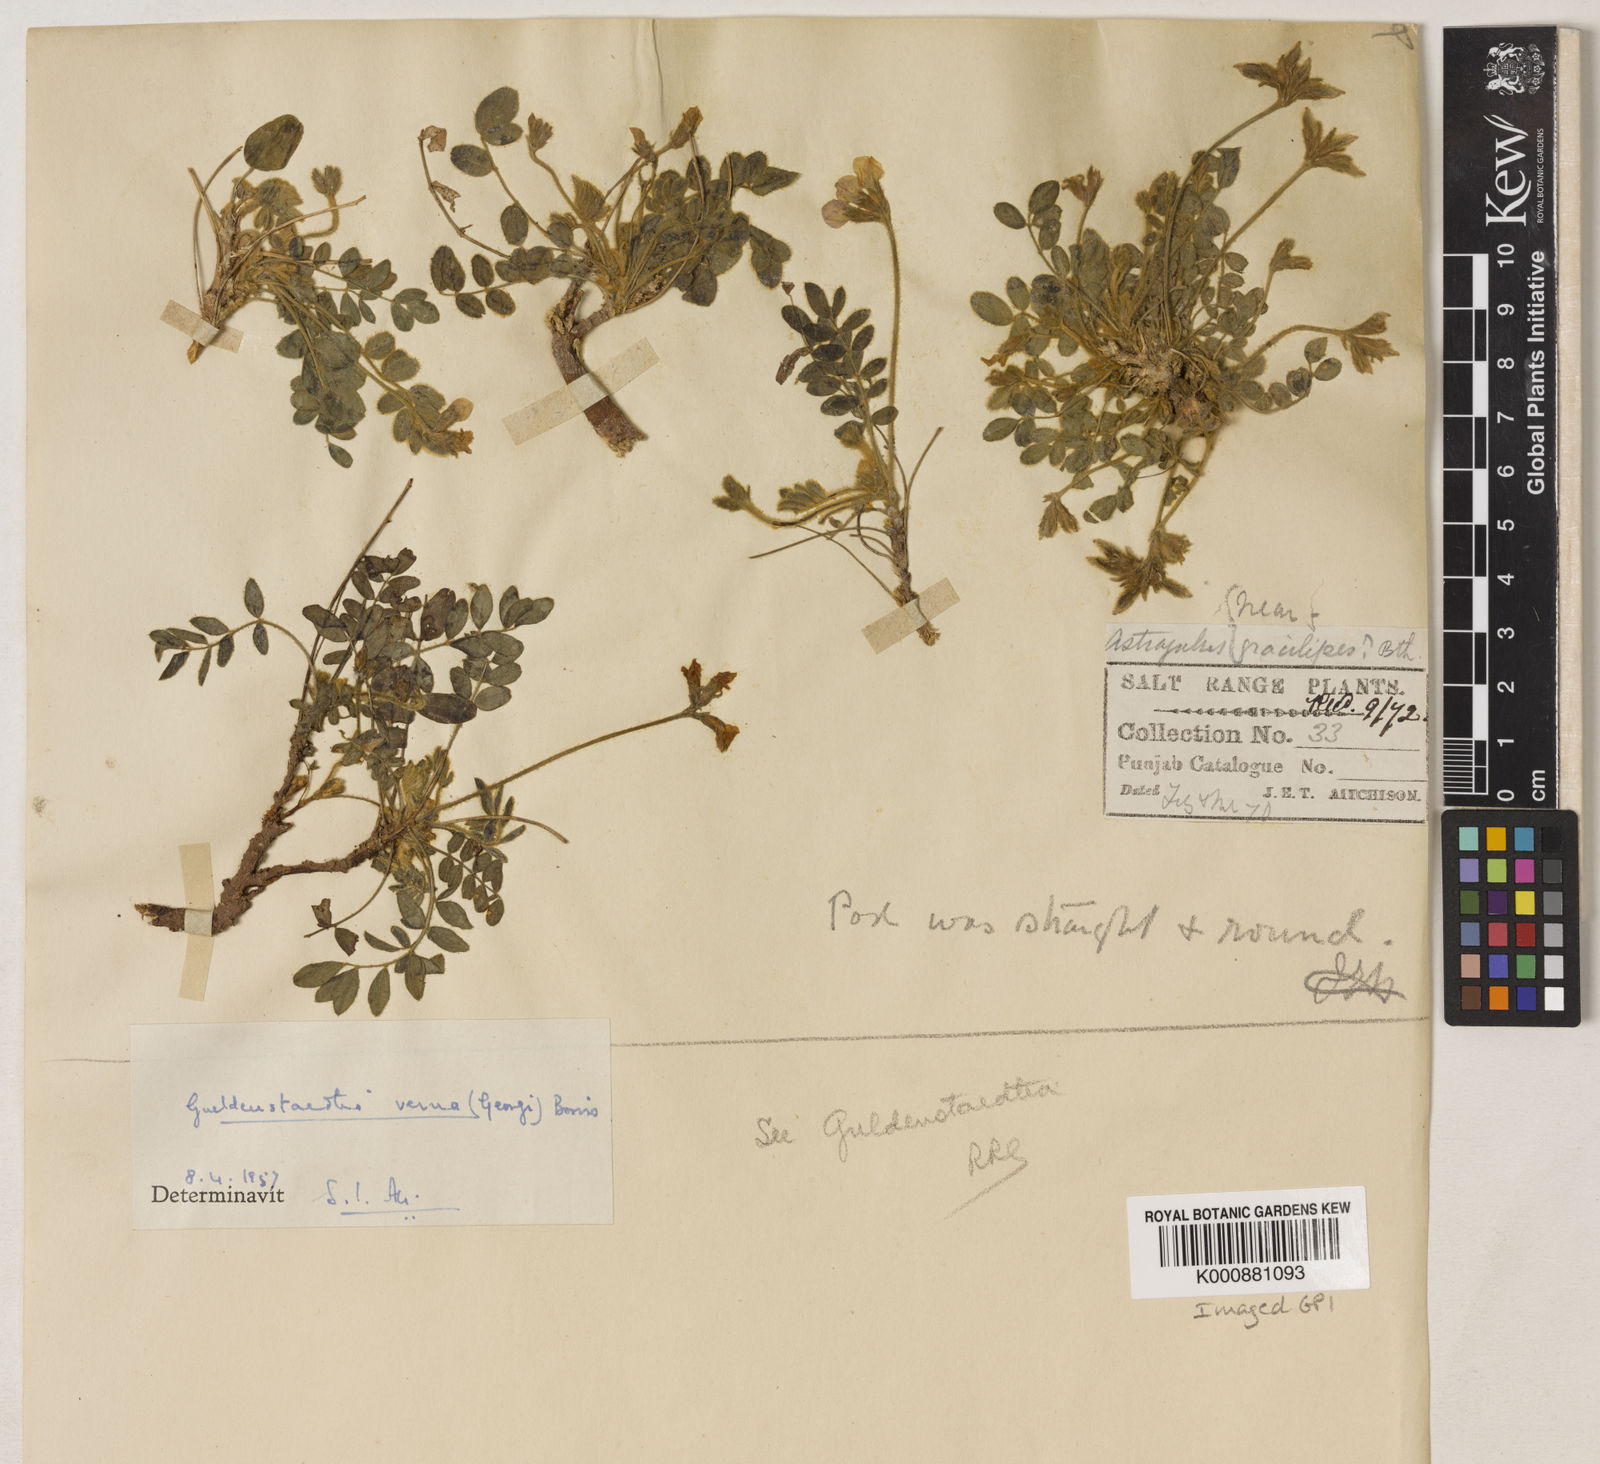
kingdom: Plantae
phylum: Tracheophyta
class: Magnoliopsida
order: Fabales
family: Fabaceae
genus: Gueldenstaedtia
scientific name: Gueldenstaedtia
